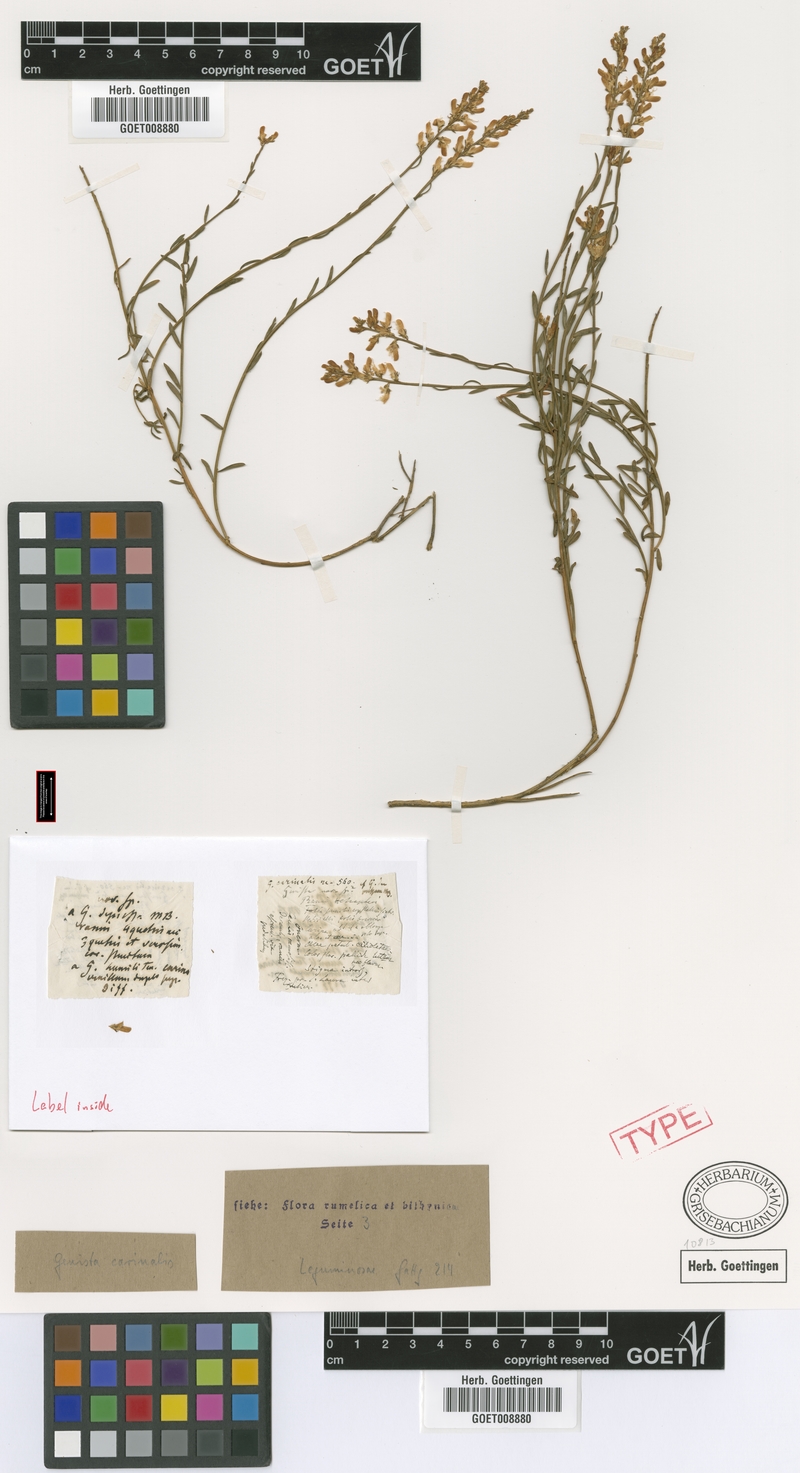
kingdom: Plantae
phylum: Tracheophyta
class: Magnoliopsida
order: Fabales
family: Fabaceae
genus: Genista
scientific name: Genista carinalis
